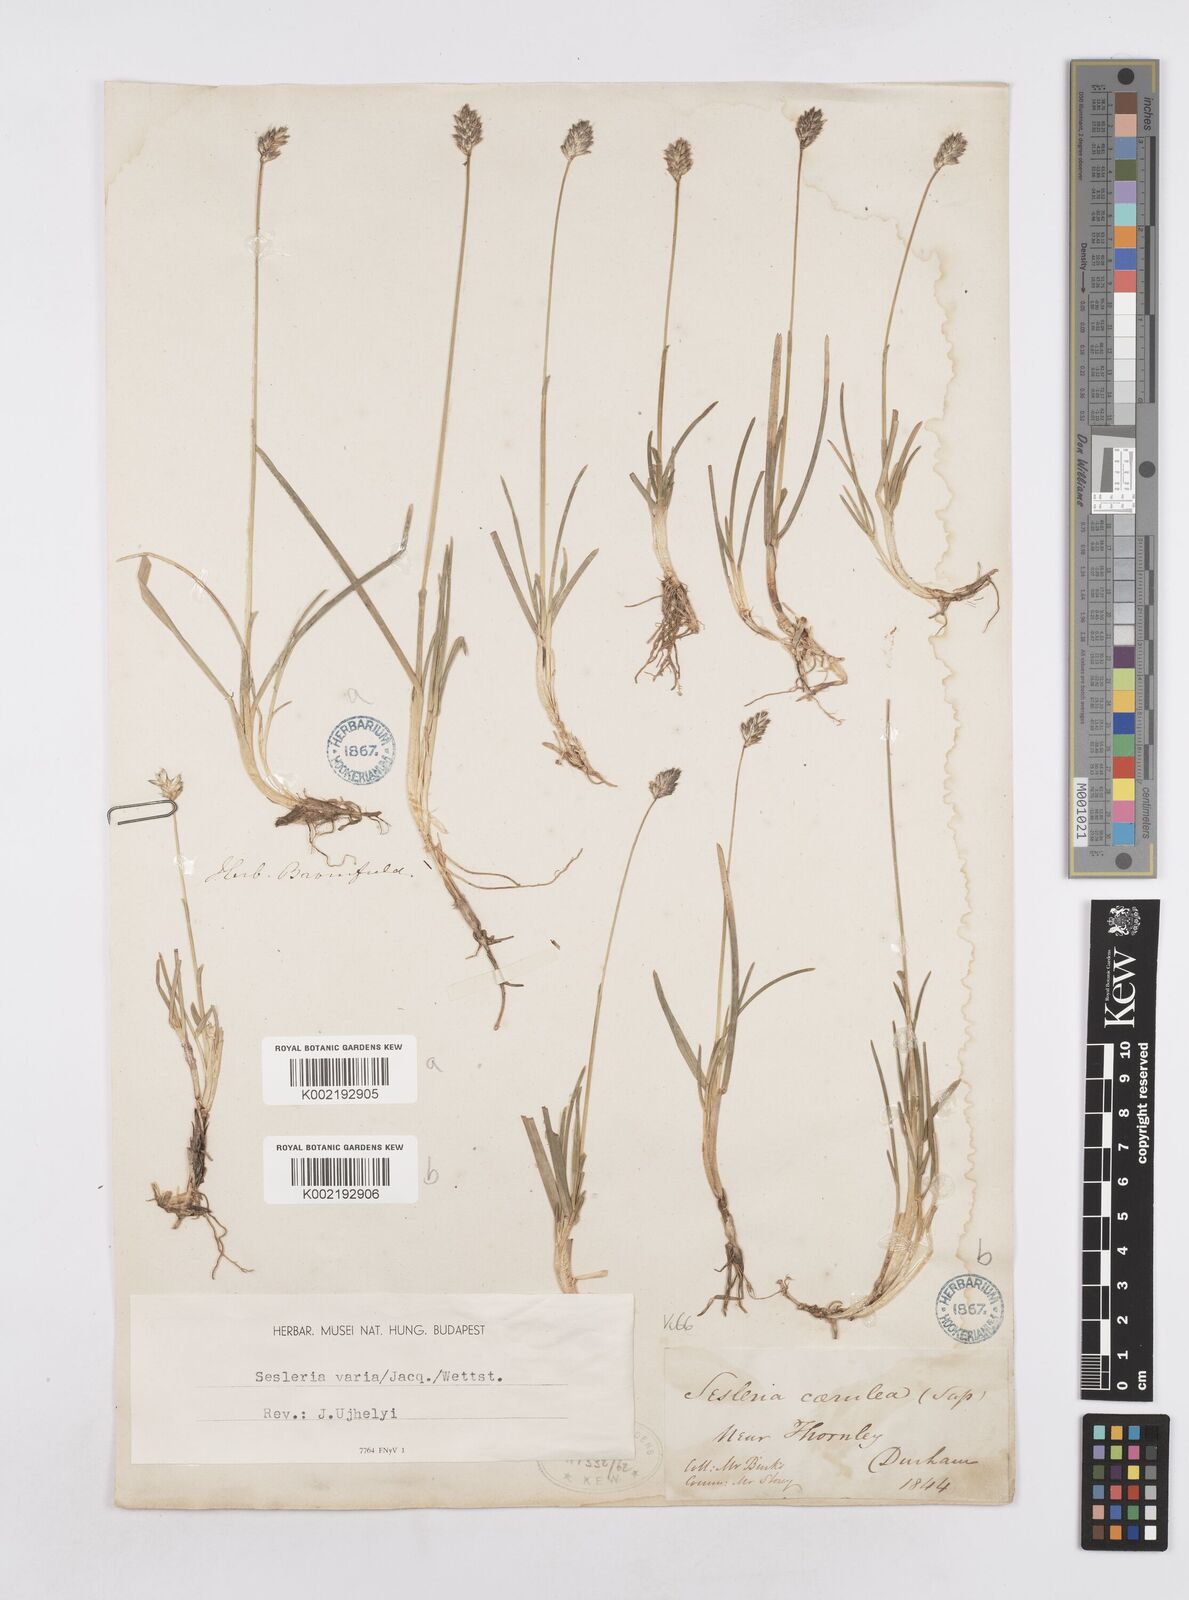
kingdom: Plantae
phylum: Tracheophyta
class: Liliopsida
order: Poales
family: Poaceae
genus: Sesleria
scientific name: Sesleria caerulea
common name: Blue moor-grass
